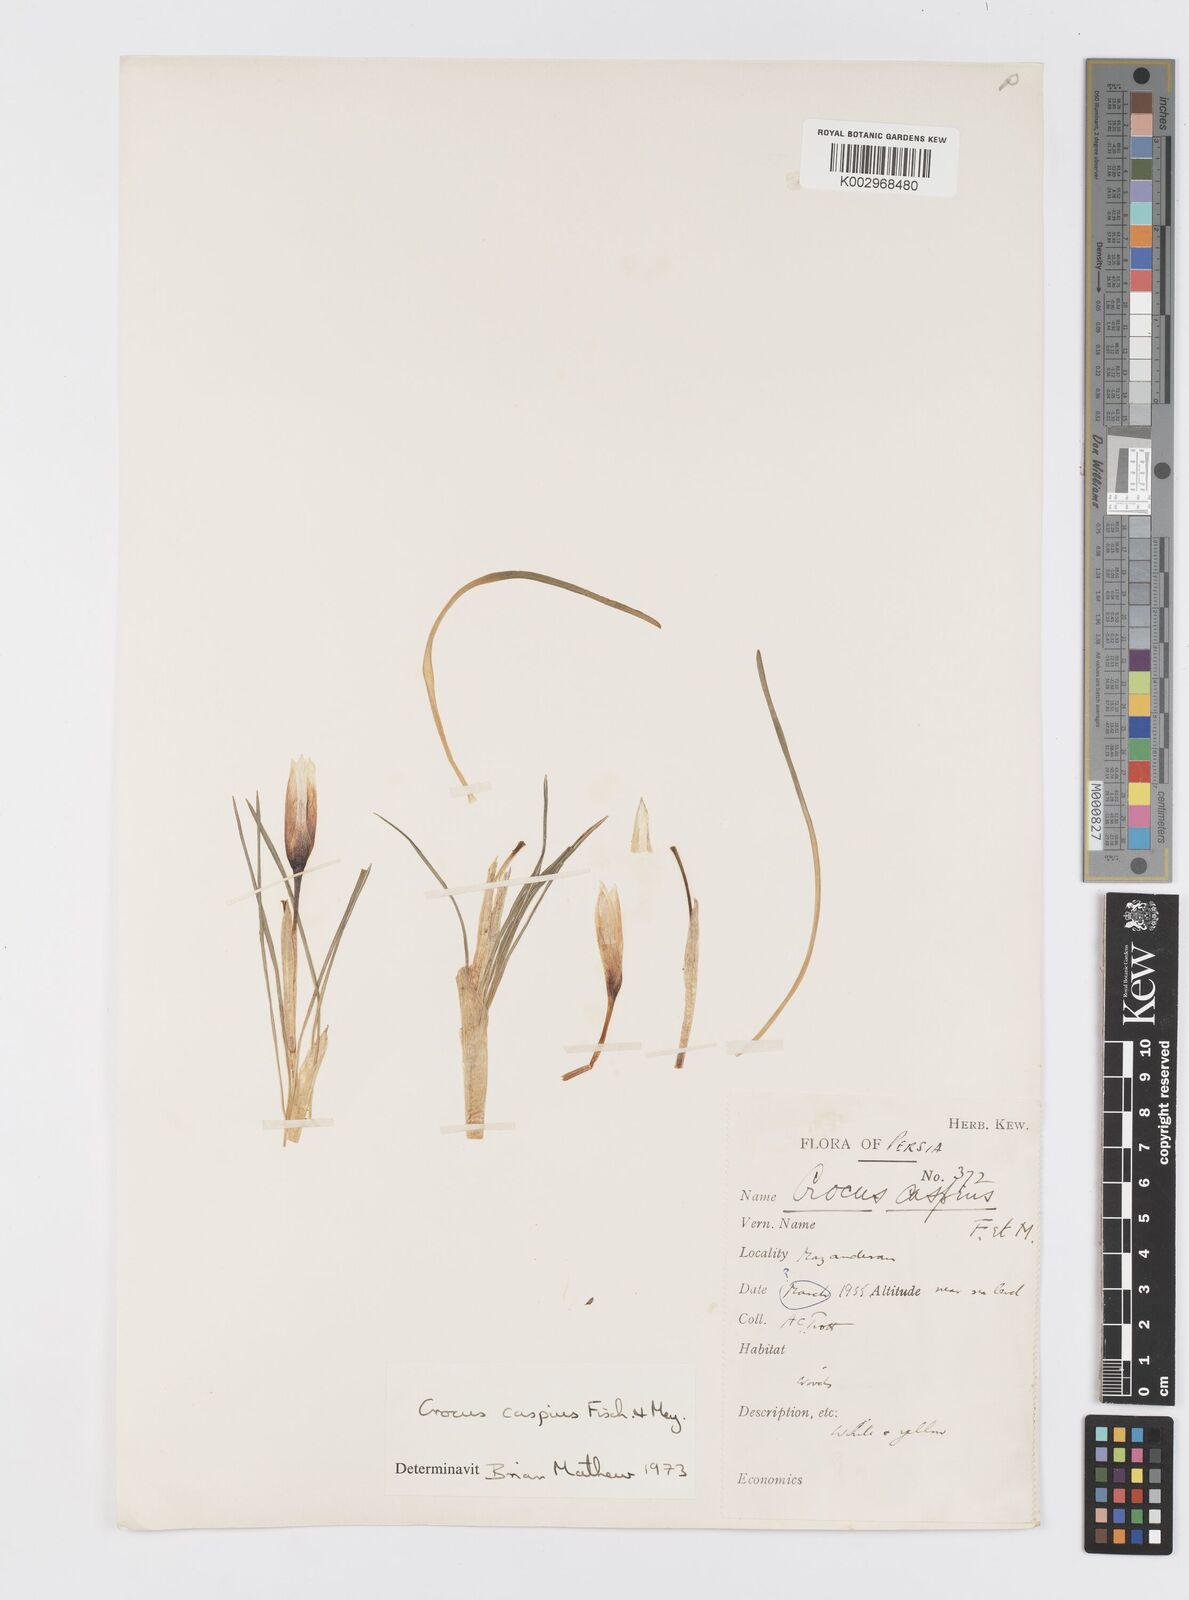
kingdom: Plantae
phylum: Tracheophyta
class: Liliopsida
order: Asparagales
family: Iridaceae
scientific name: Iridaceae
